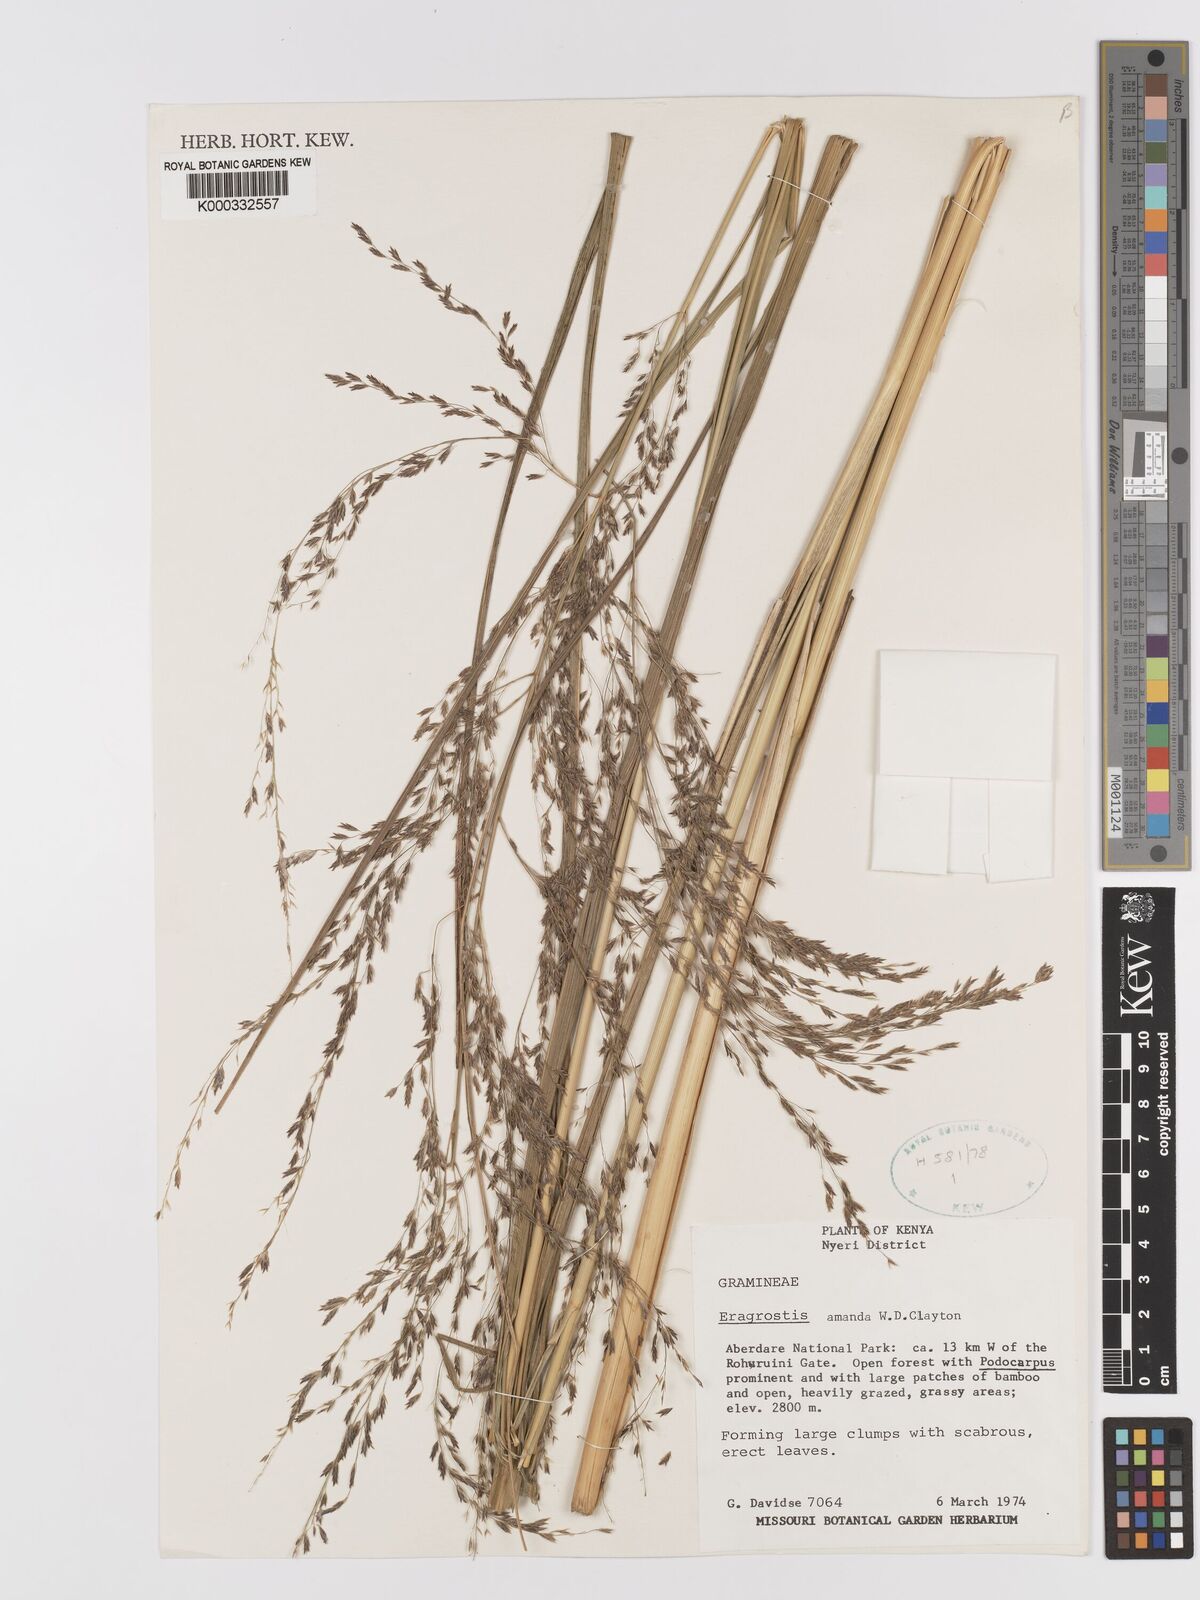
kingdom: Plantae
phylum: Tracheophyta
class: Liliopsida
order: Poales
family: Poaceae
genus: Eragrostis
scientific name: Eragrostis amanda
